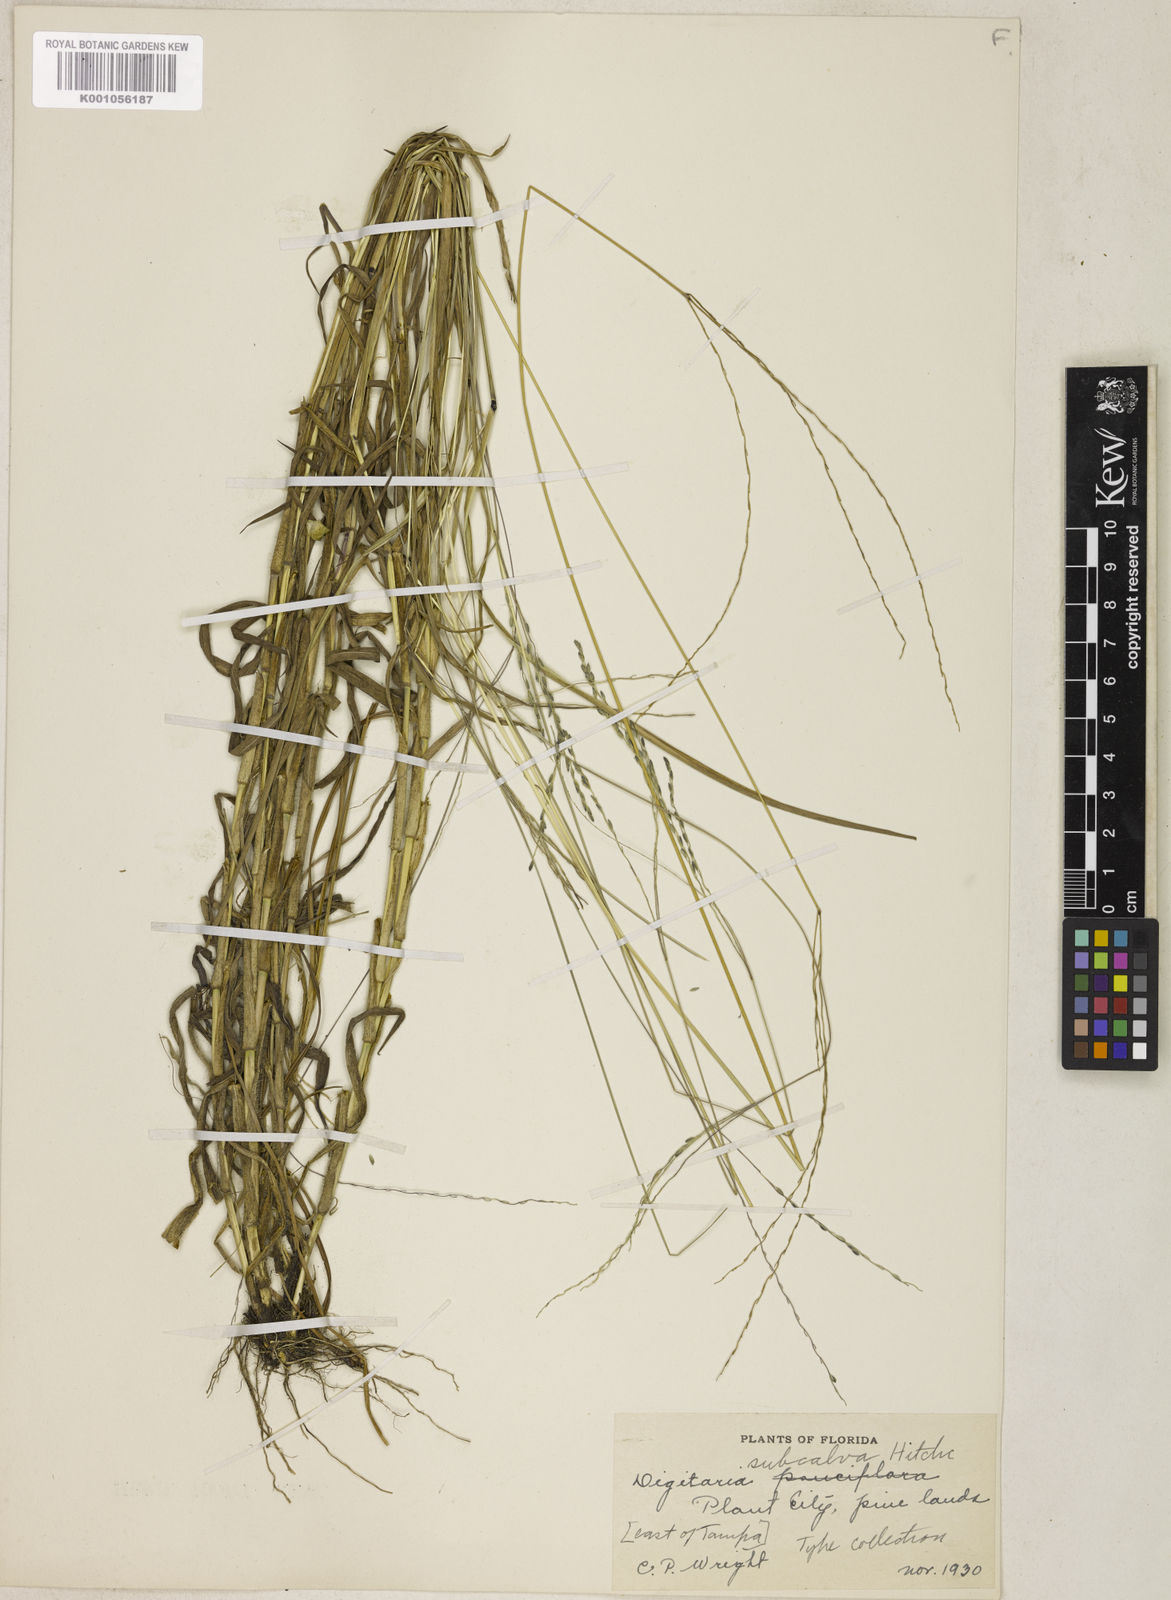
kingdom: Plantae
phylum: Tracheophyta
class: Liliopsida
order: Poales
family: Poaceae
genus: Digitaria
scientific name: Digitaria texana
